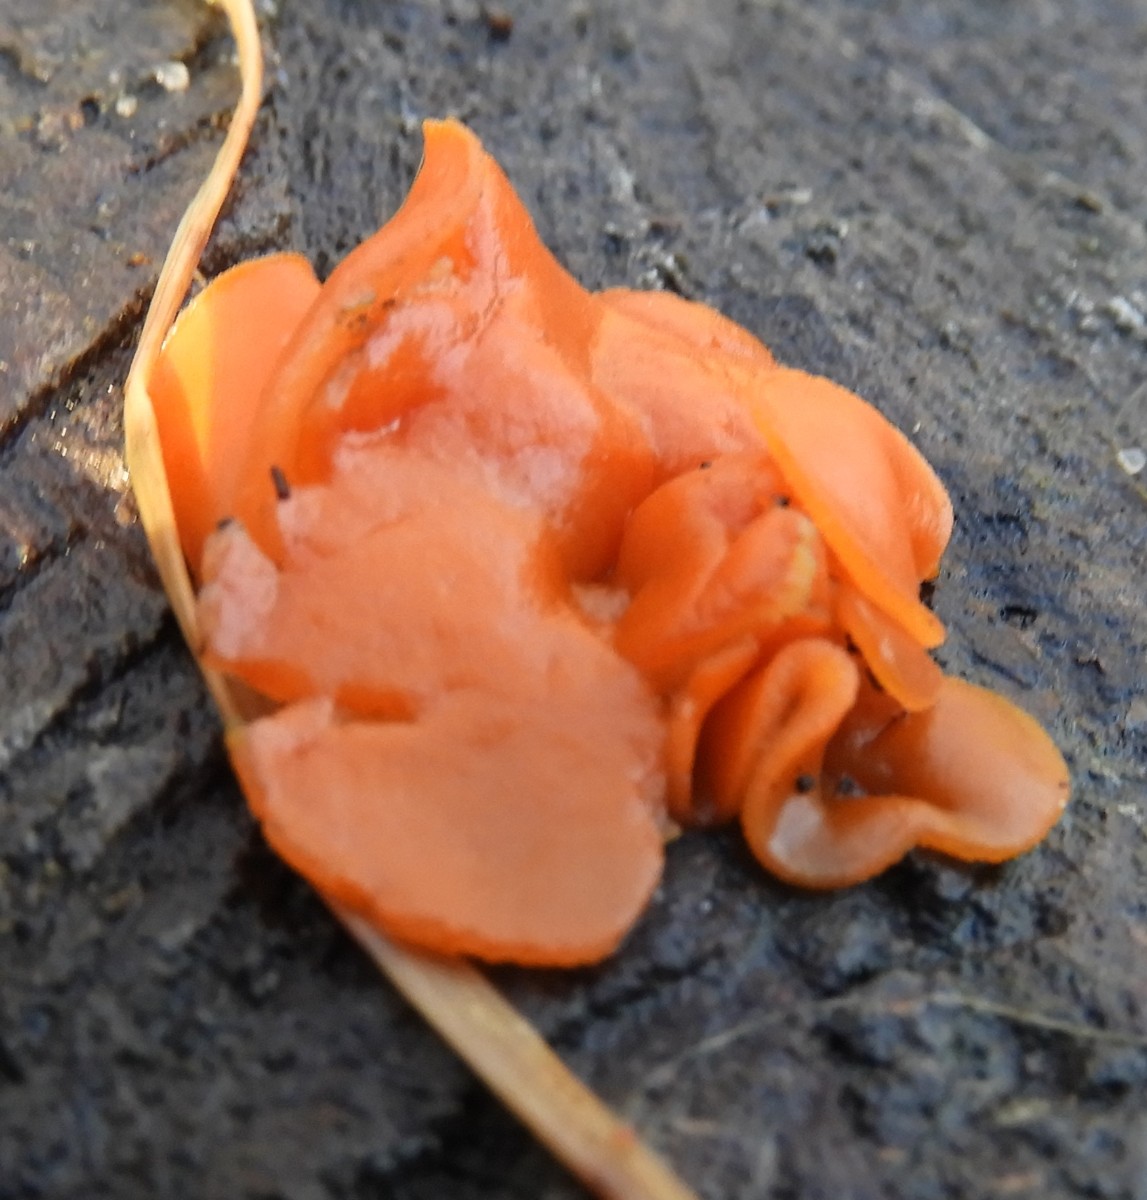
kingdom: Fungi
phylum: Ascomycota
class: Pezizomycetes
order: Pezizales
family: Pyronemataceae
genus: Aleuria
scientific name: Aleuria aurantia
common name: almindelig orangebæger
